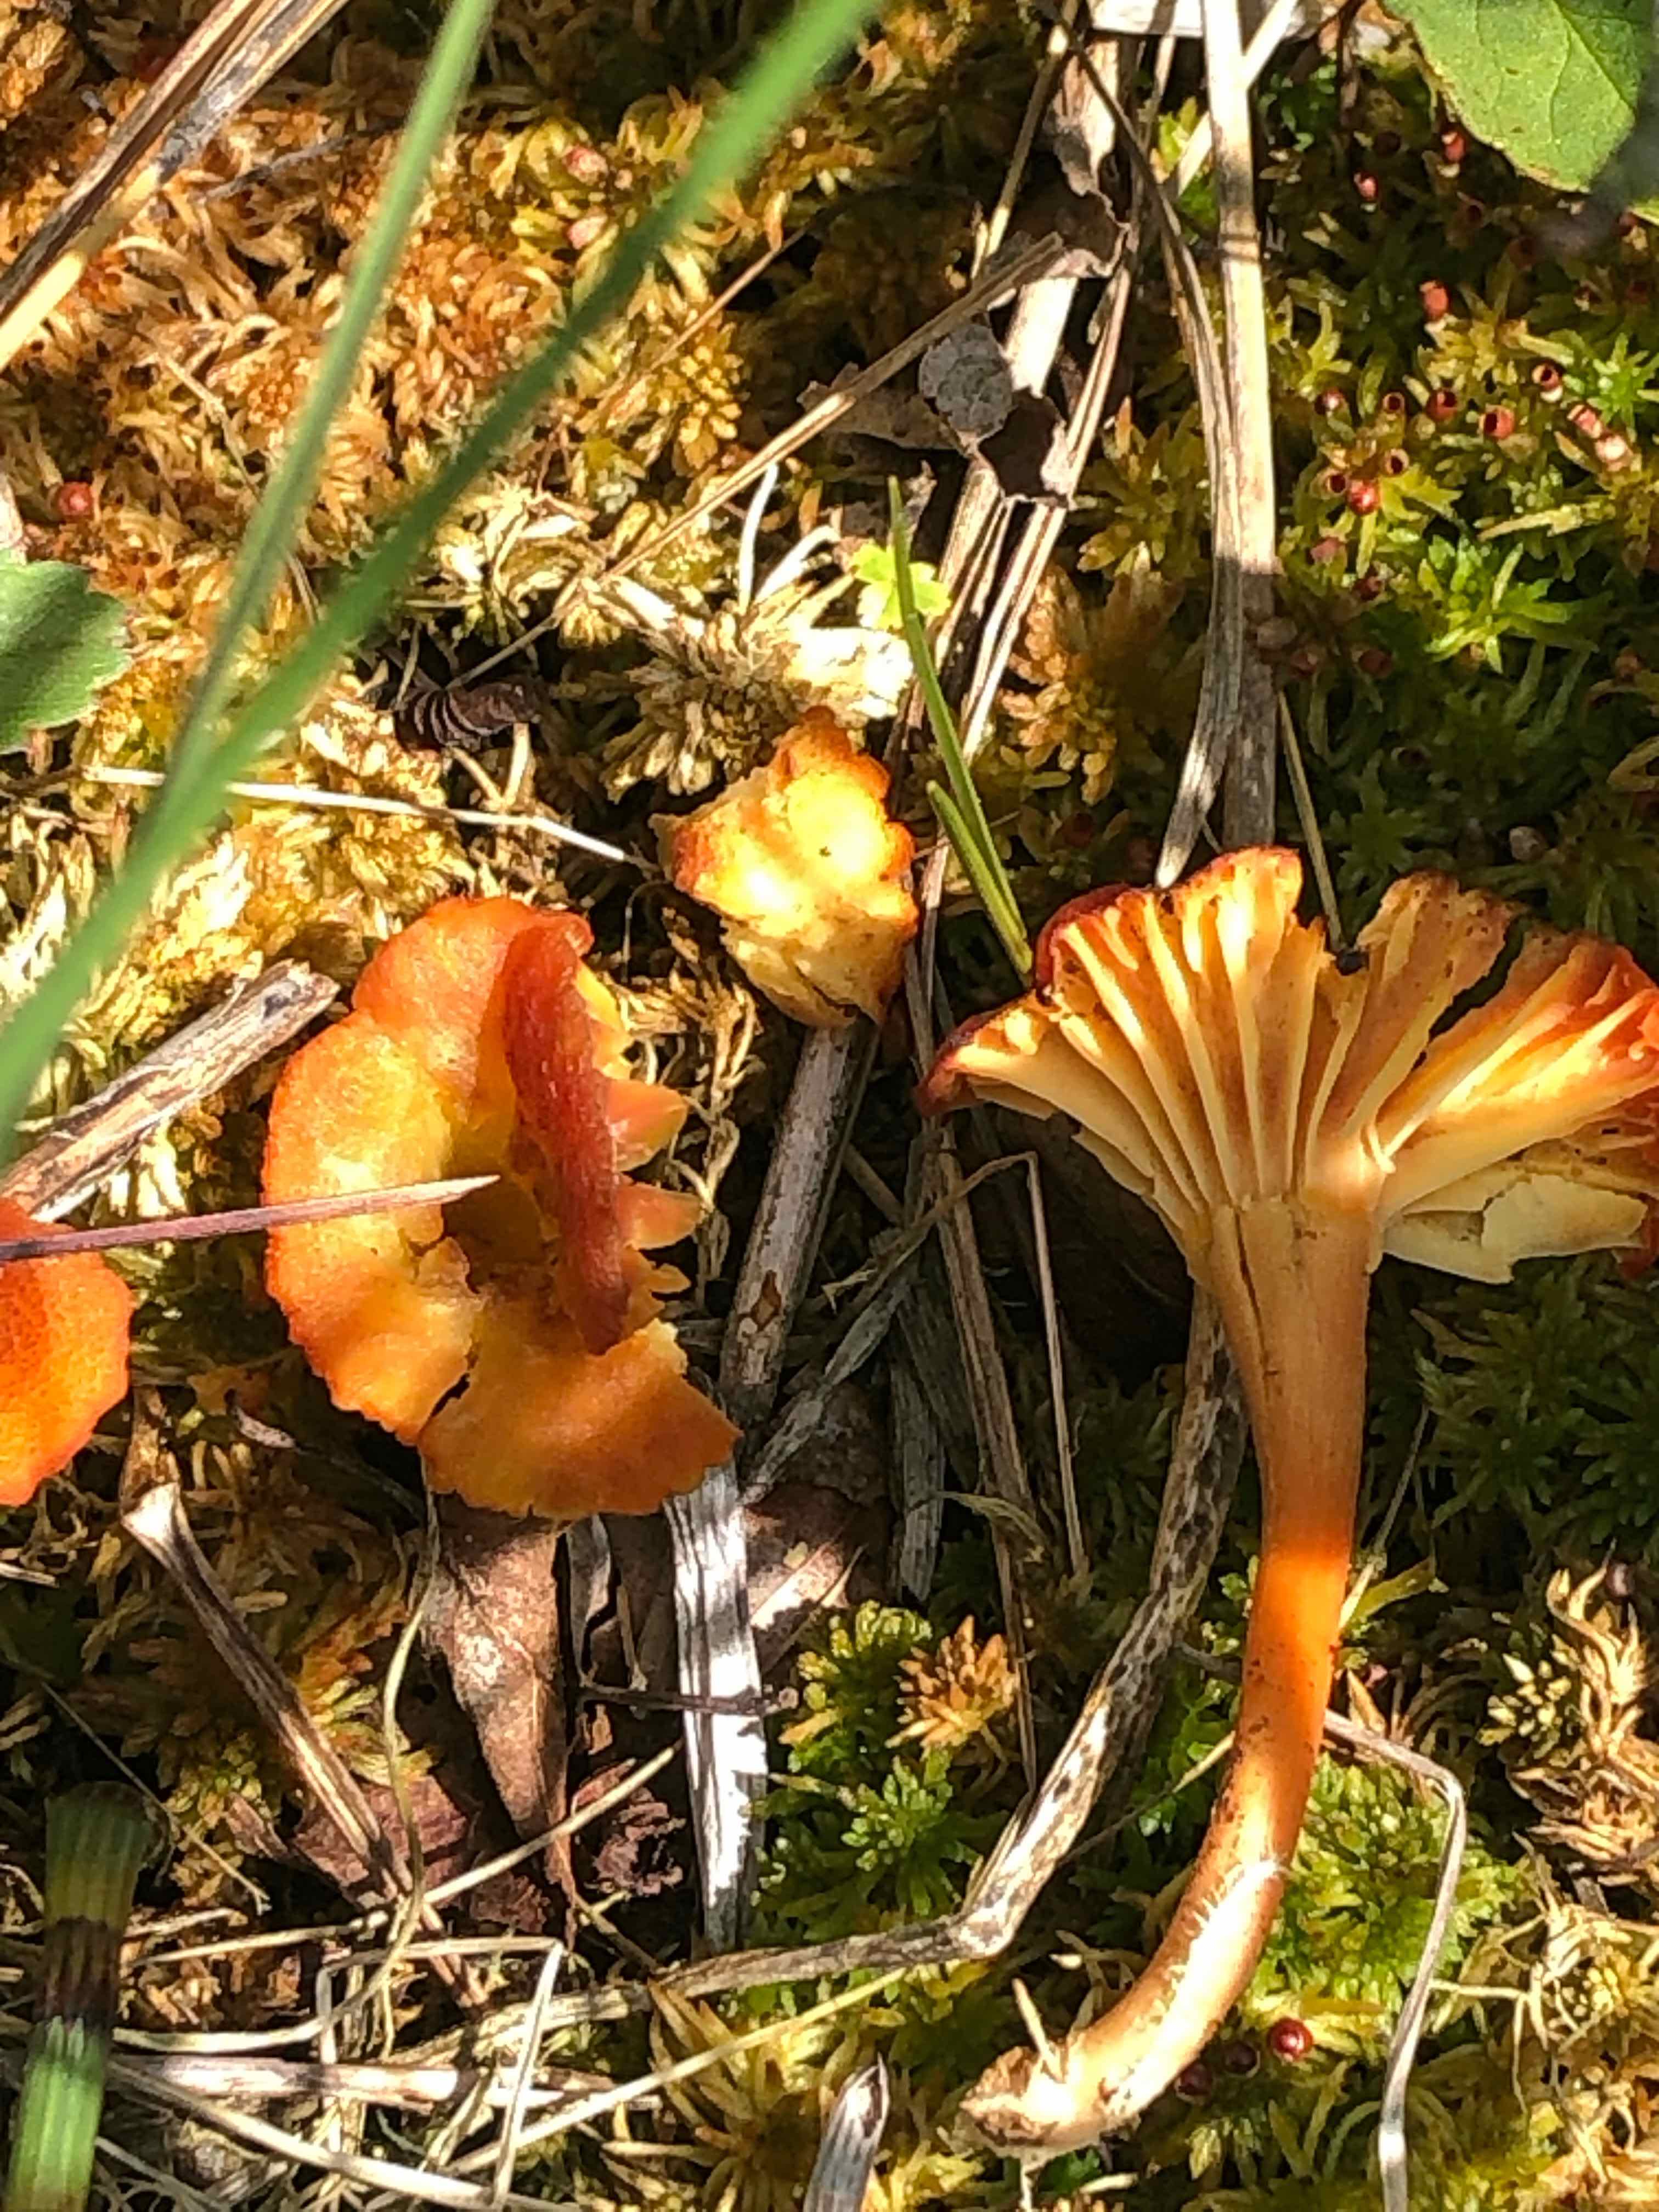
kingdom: Fungi
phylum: Basidiomycota
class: Agaricomycetes
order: Agaricales
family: Hygrophoraceae
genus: Hygrocybe
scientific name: Hygrocybe
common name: vokshat
